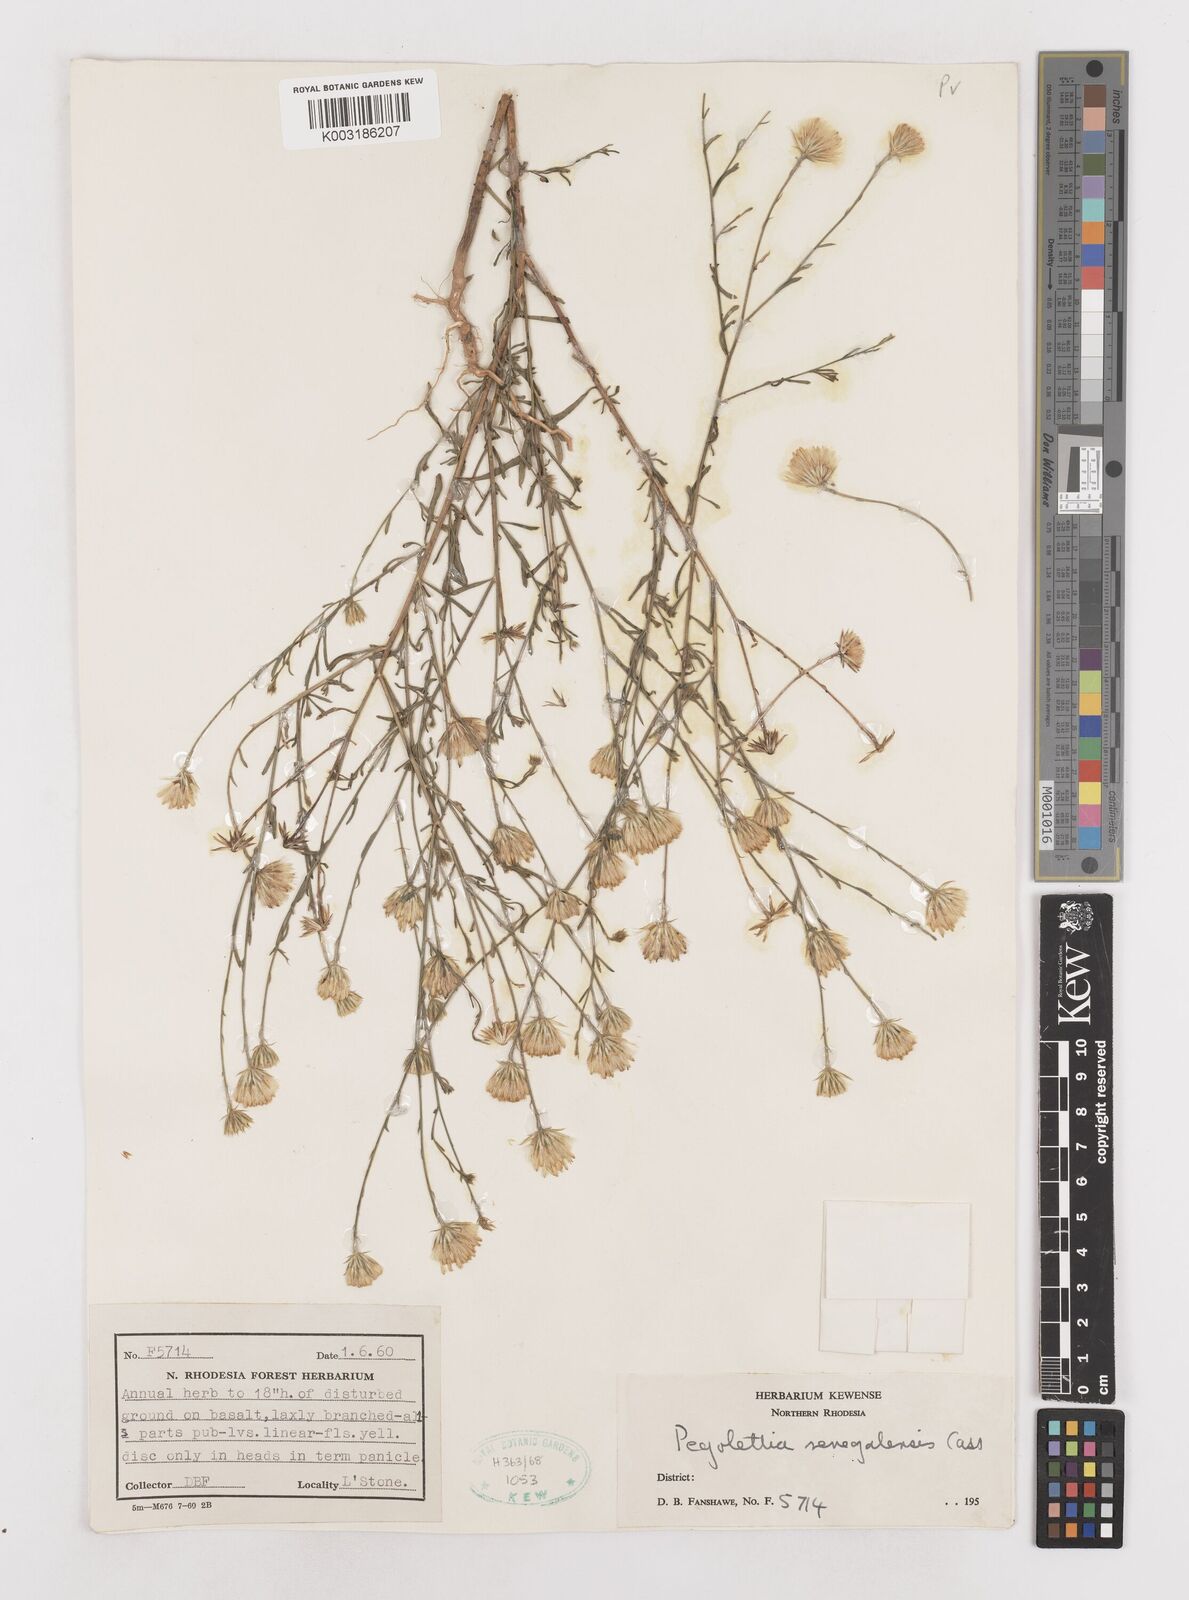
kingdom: Plantae
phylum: Tracheophyta
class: Magnoliopsida
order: Asterales
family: Asteraceae
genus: Pegolettia
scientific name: Pegolettia senegalensis
